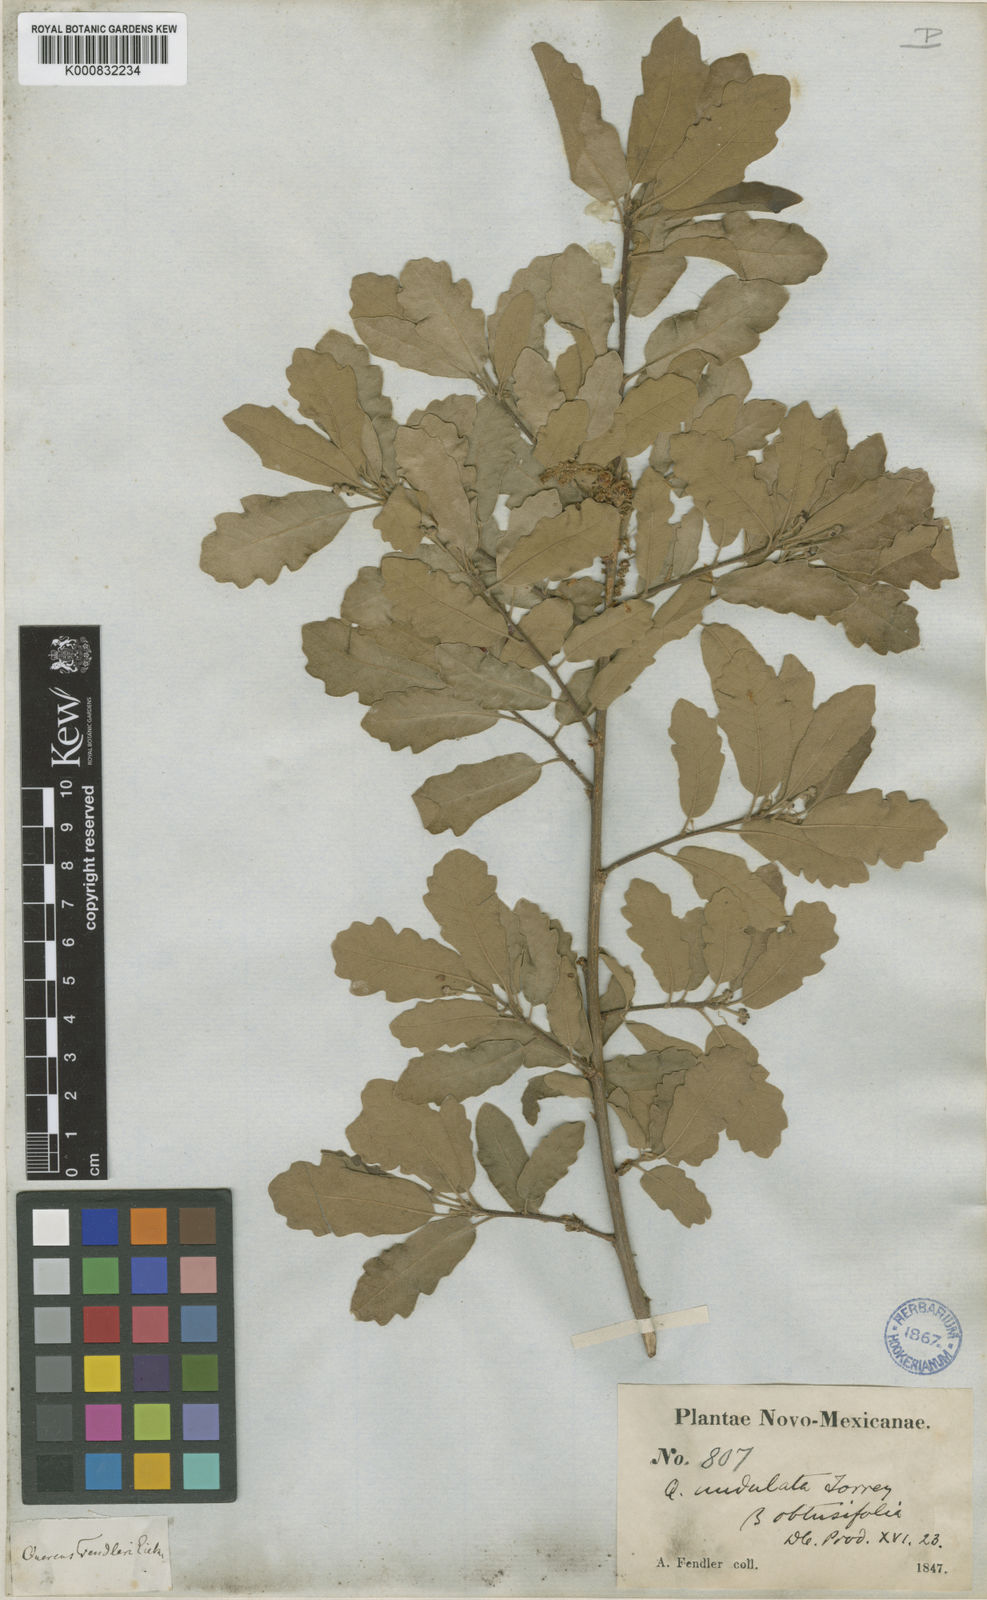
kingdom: Plantae
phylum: Tracheophyta
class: Magnoliopsida
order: Fagales
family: Fagaceae
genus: Quercus
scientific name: Quercus undulata
